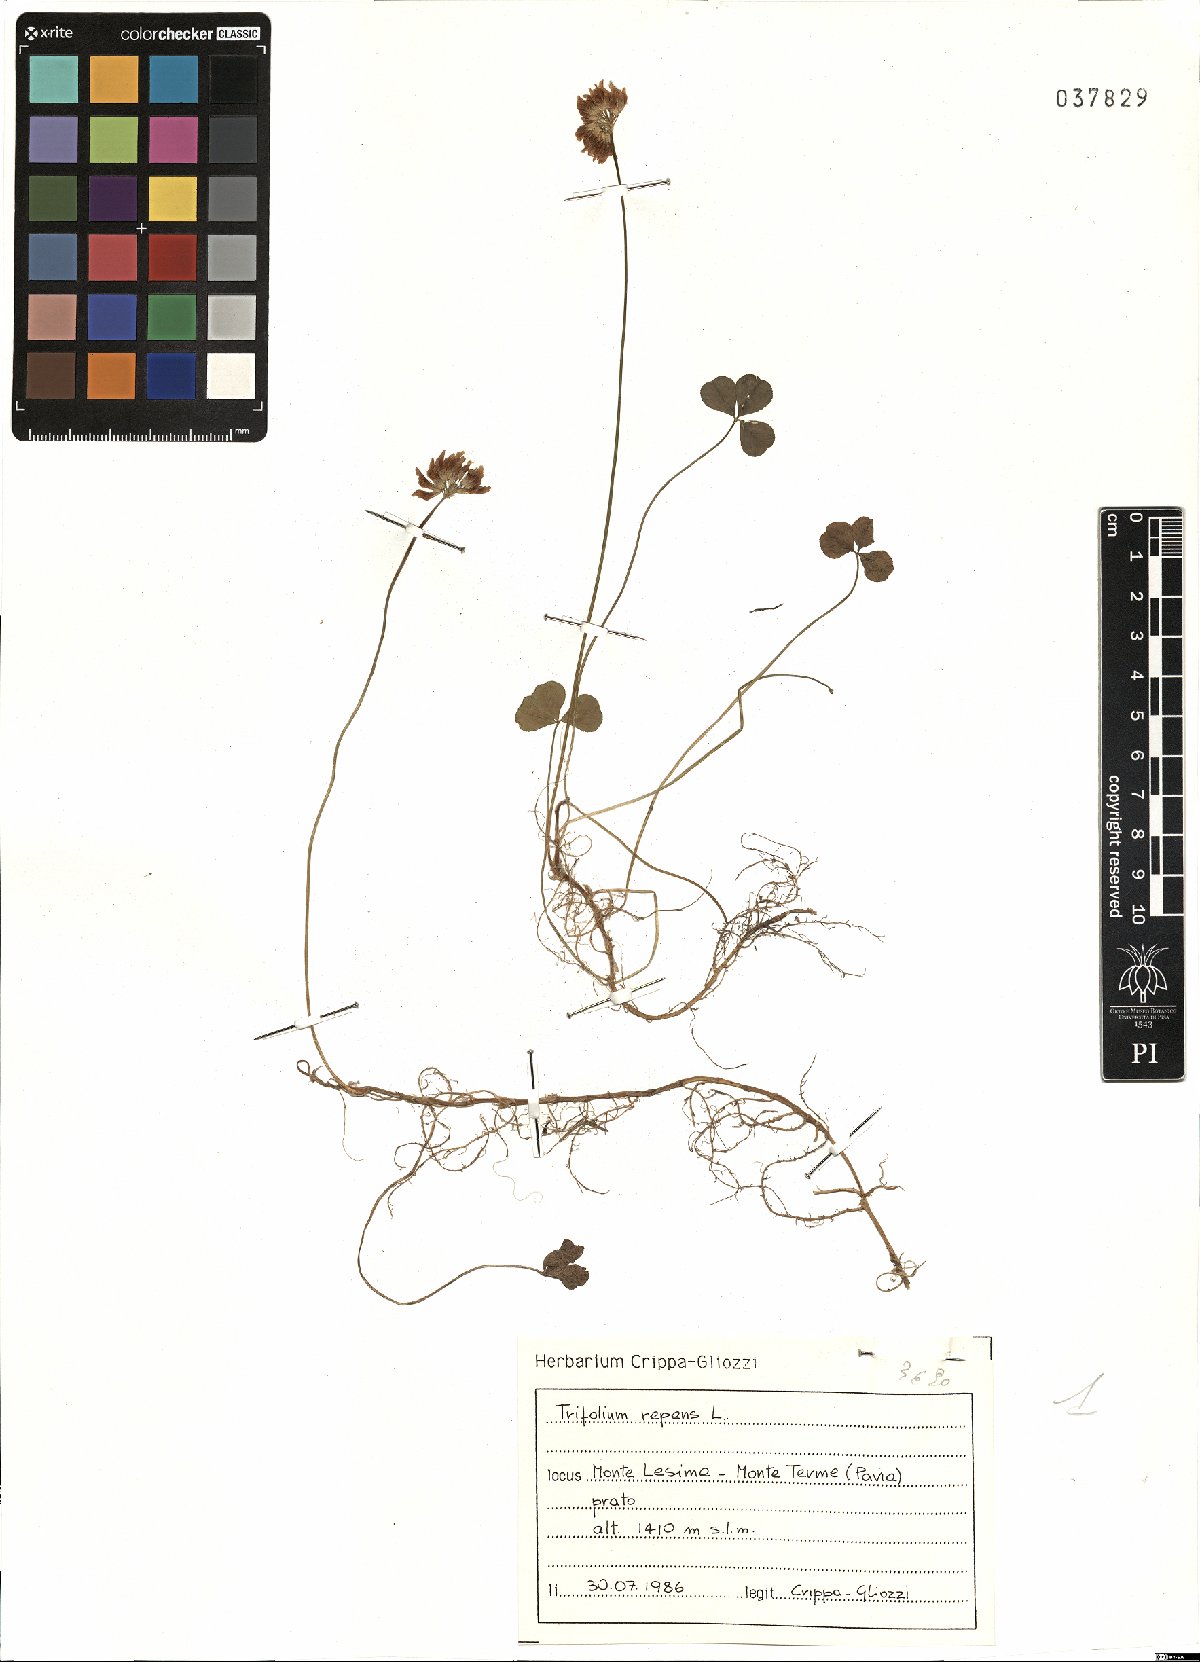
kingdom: Plantae
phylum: Tracheophyta
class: Magnoliopsida
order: Fabales
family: Fabaceae
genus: Trifolium
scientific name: Trifolium repens
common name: White clover
